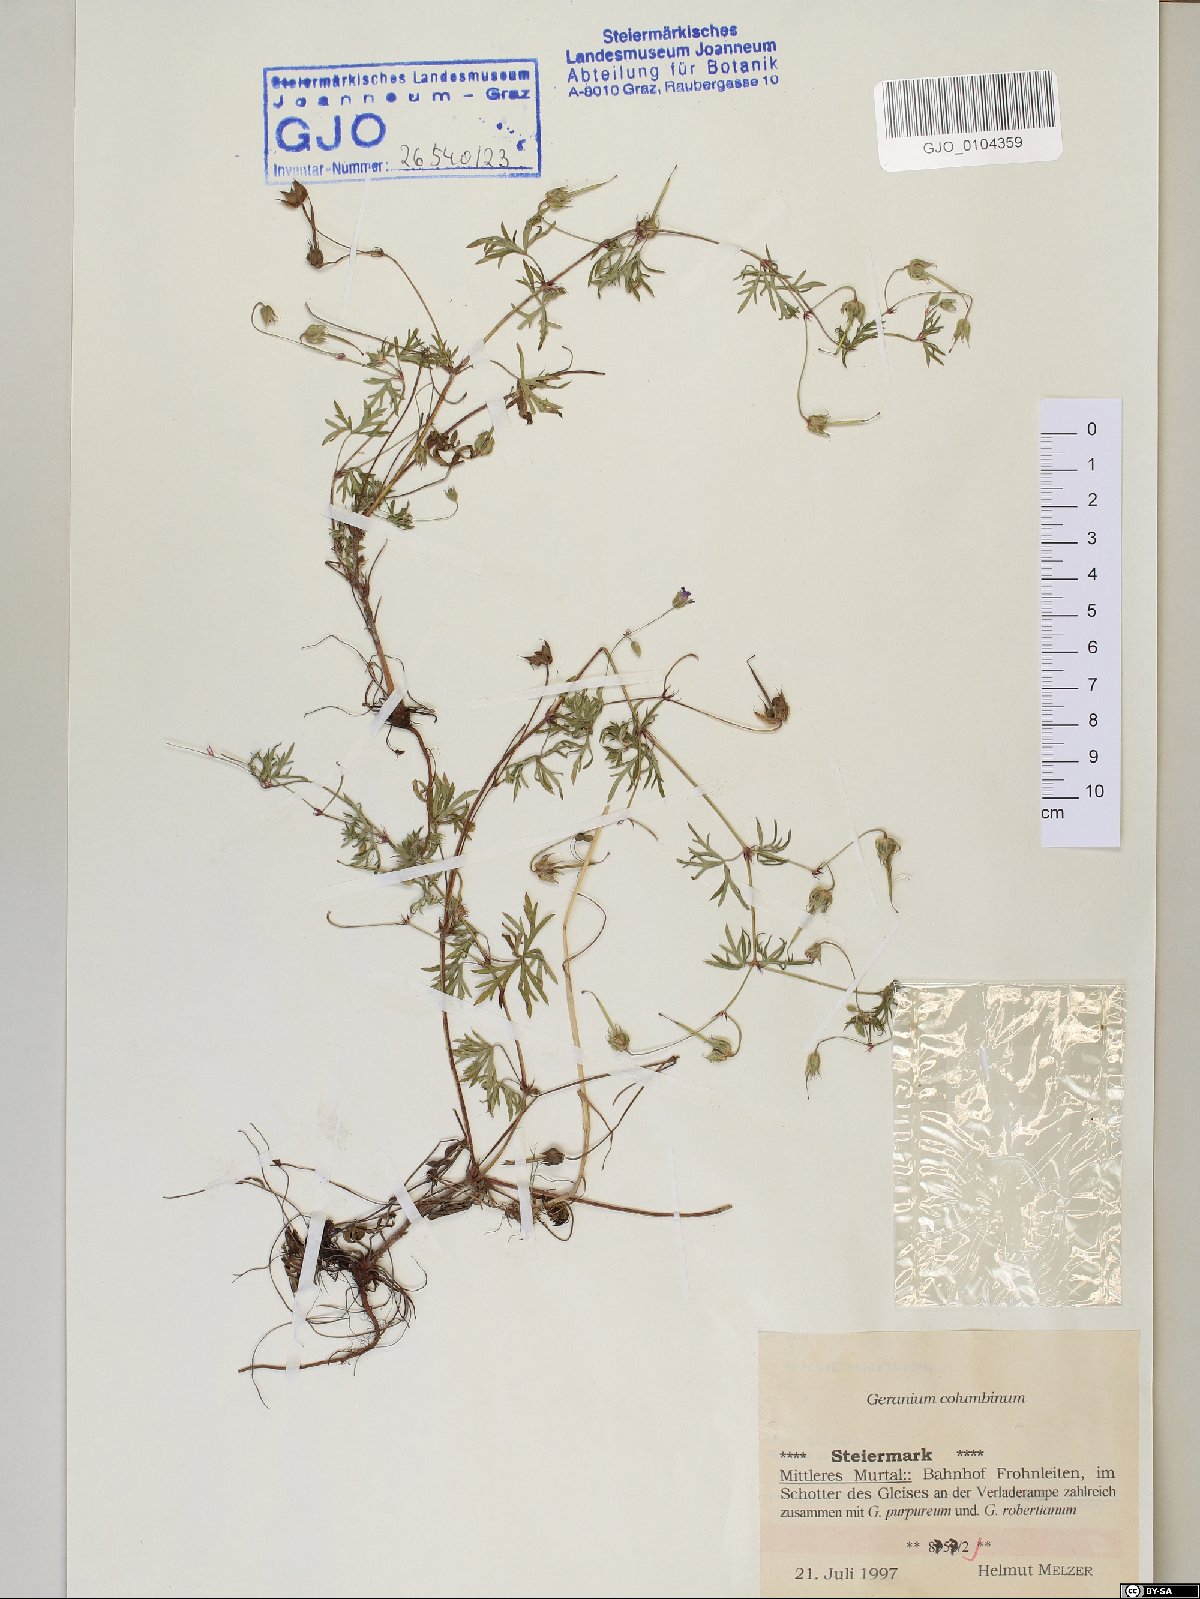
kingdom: Plantae
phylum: Tracheophyta
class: Magnoliopsida
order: Geraniales
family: Geraniaceae
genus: Geranium
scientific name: Geranium columbinum
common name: Long-stalked crane's-bill
